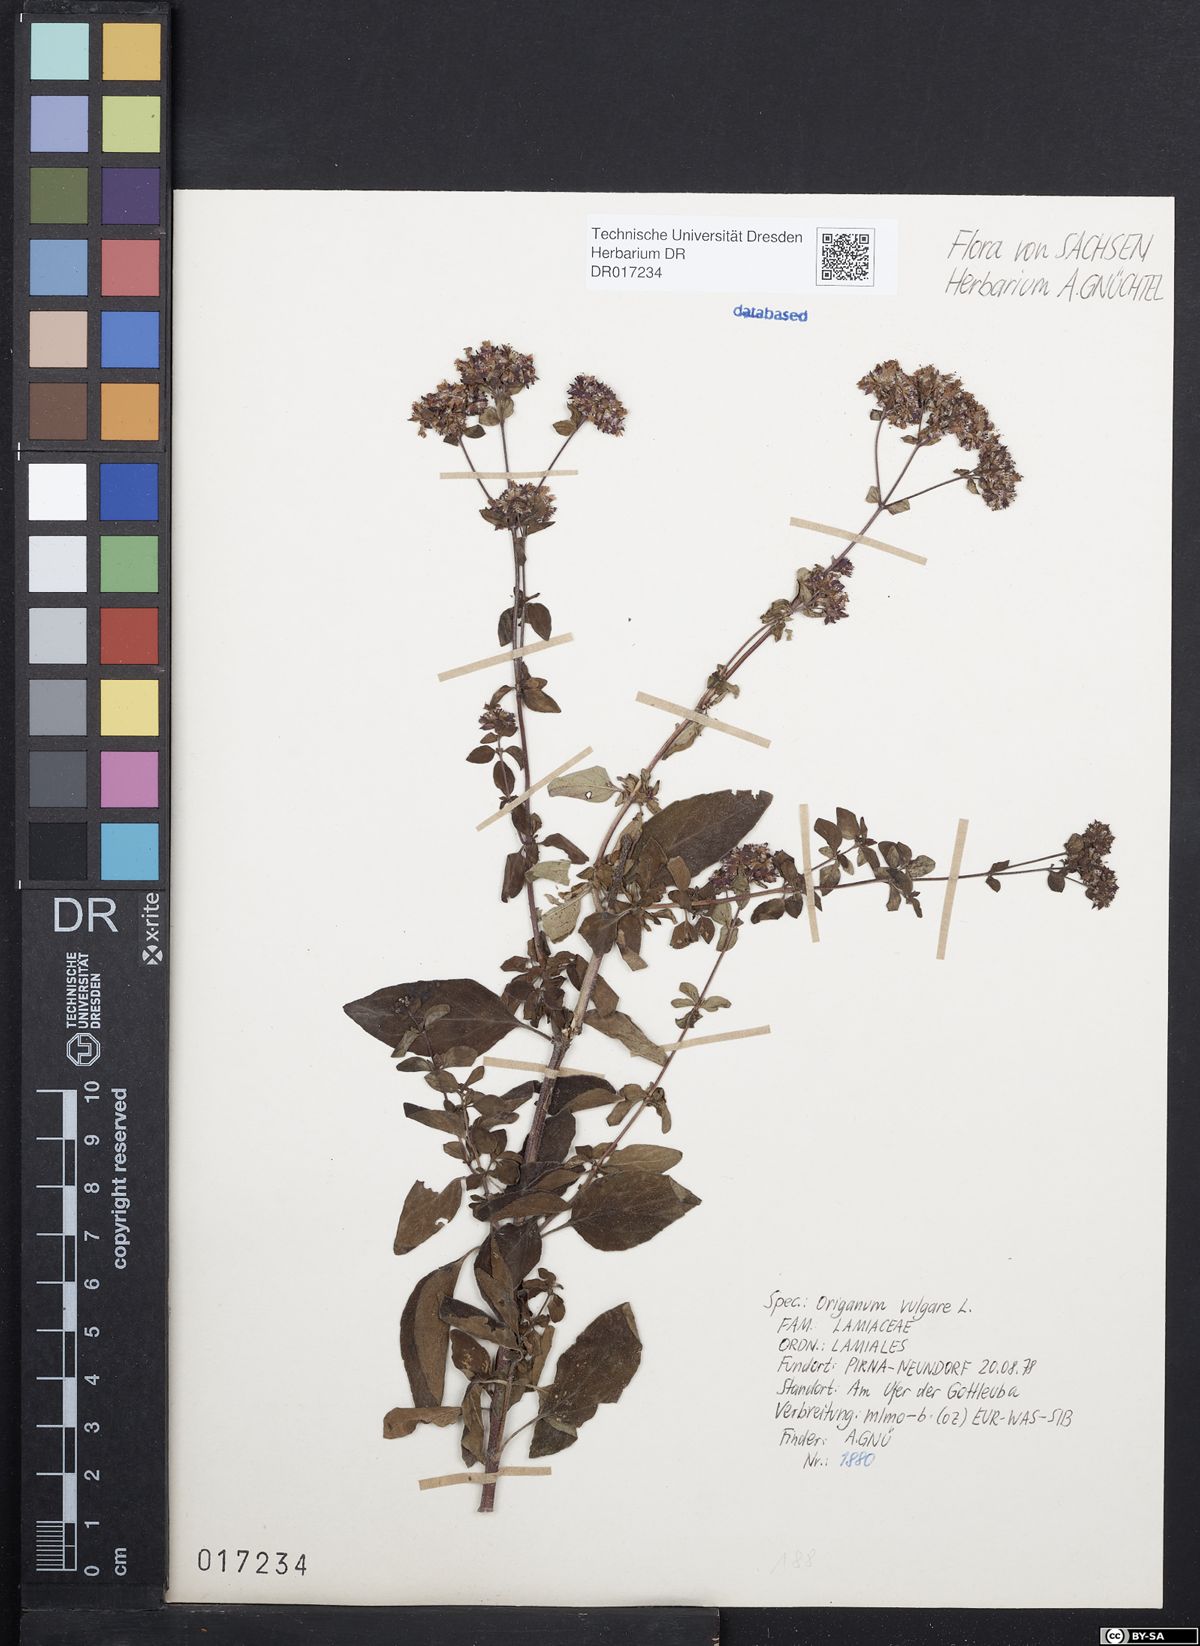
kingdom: Plantae
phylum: Tracheophyta
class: Magnoliopsida
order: Lamiales
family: Lamiaceae
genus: Origanum
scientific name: Origanum vulgare
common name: Wild marjoram
